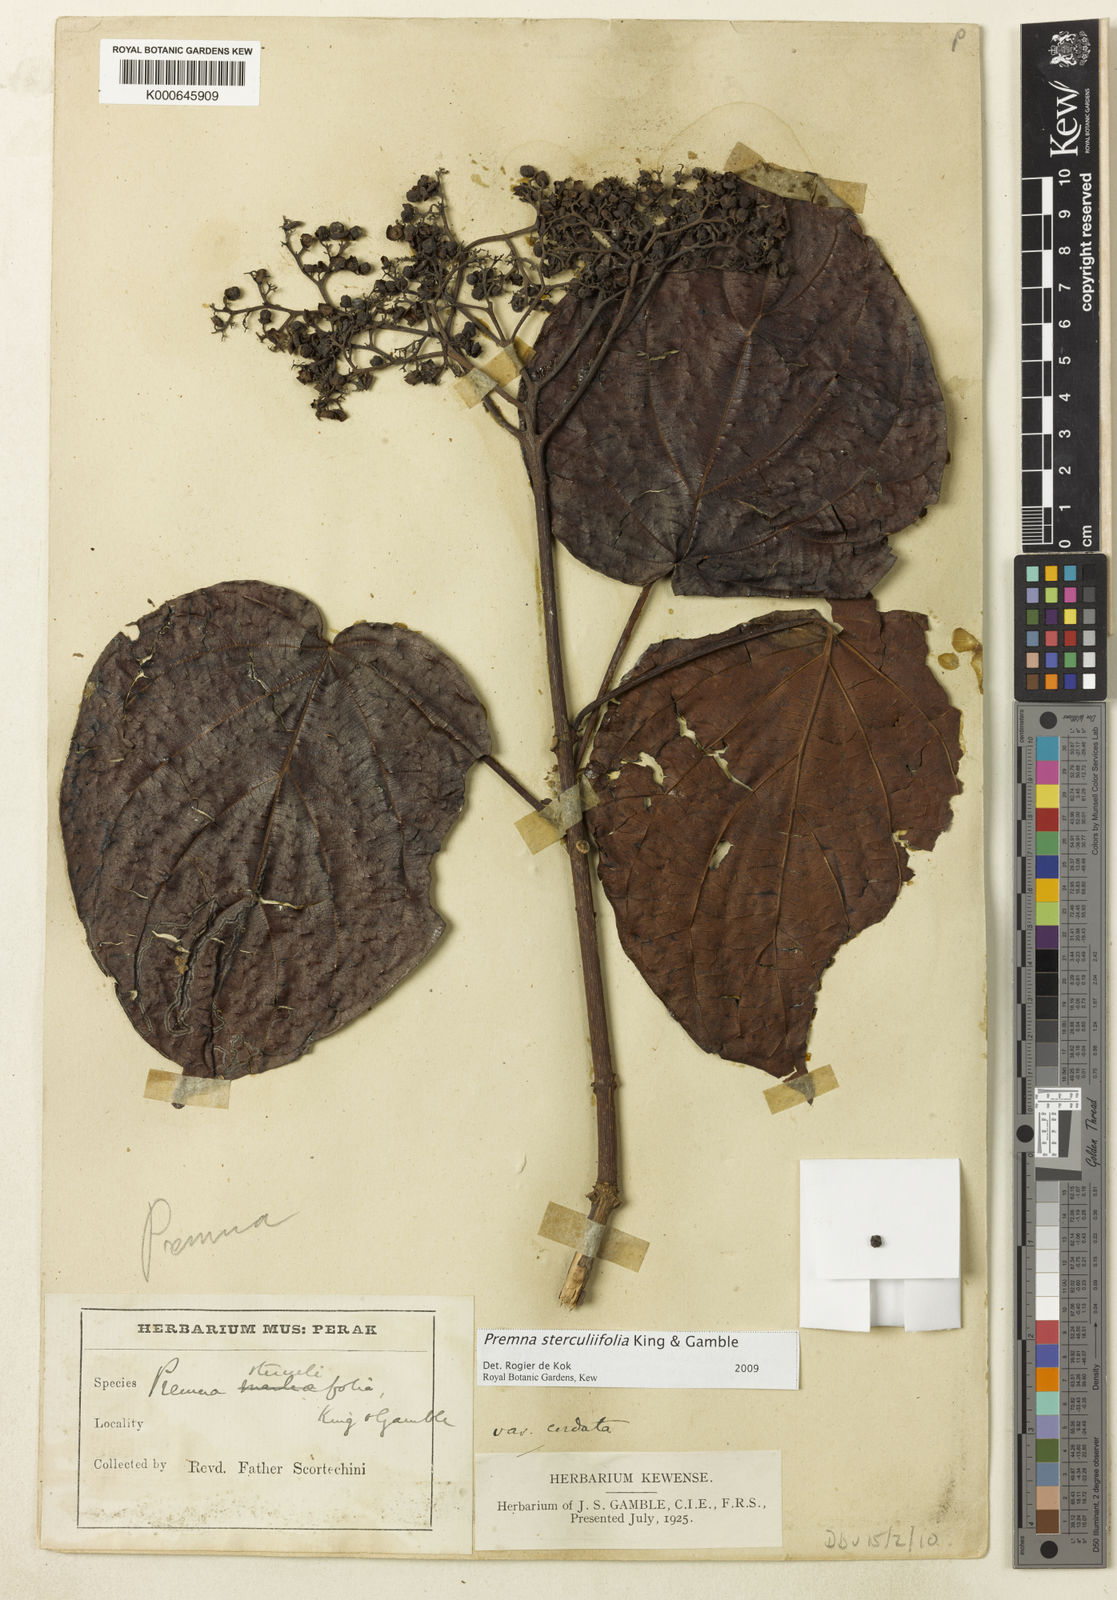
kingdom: Plantae
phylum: Tracheophyta
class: Magnoliopsida
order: Lamiales
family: Lamiaceae
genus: Premna
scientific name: Premna sterculiifolia
